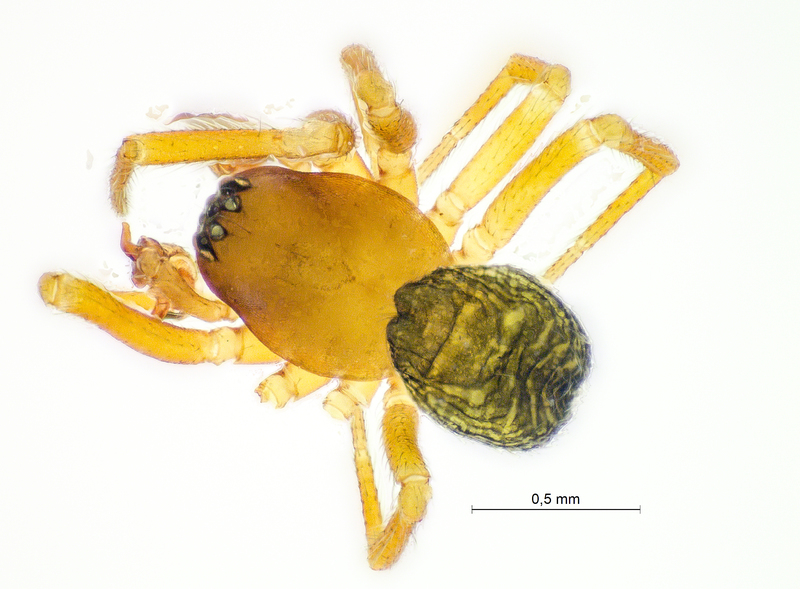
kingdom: Animalia
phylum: Arthropoda
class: Arachnida
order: Araneae
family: Linyphiidae
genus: Gongylidiellum
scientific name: Gongylidiellum latebricola
